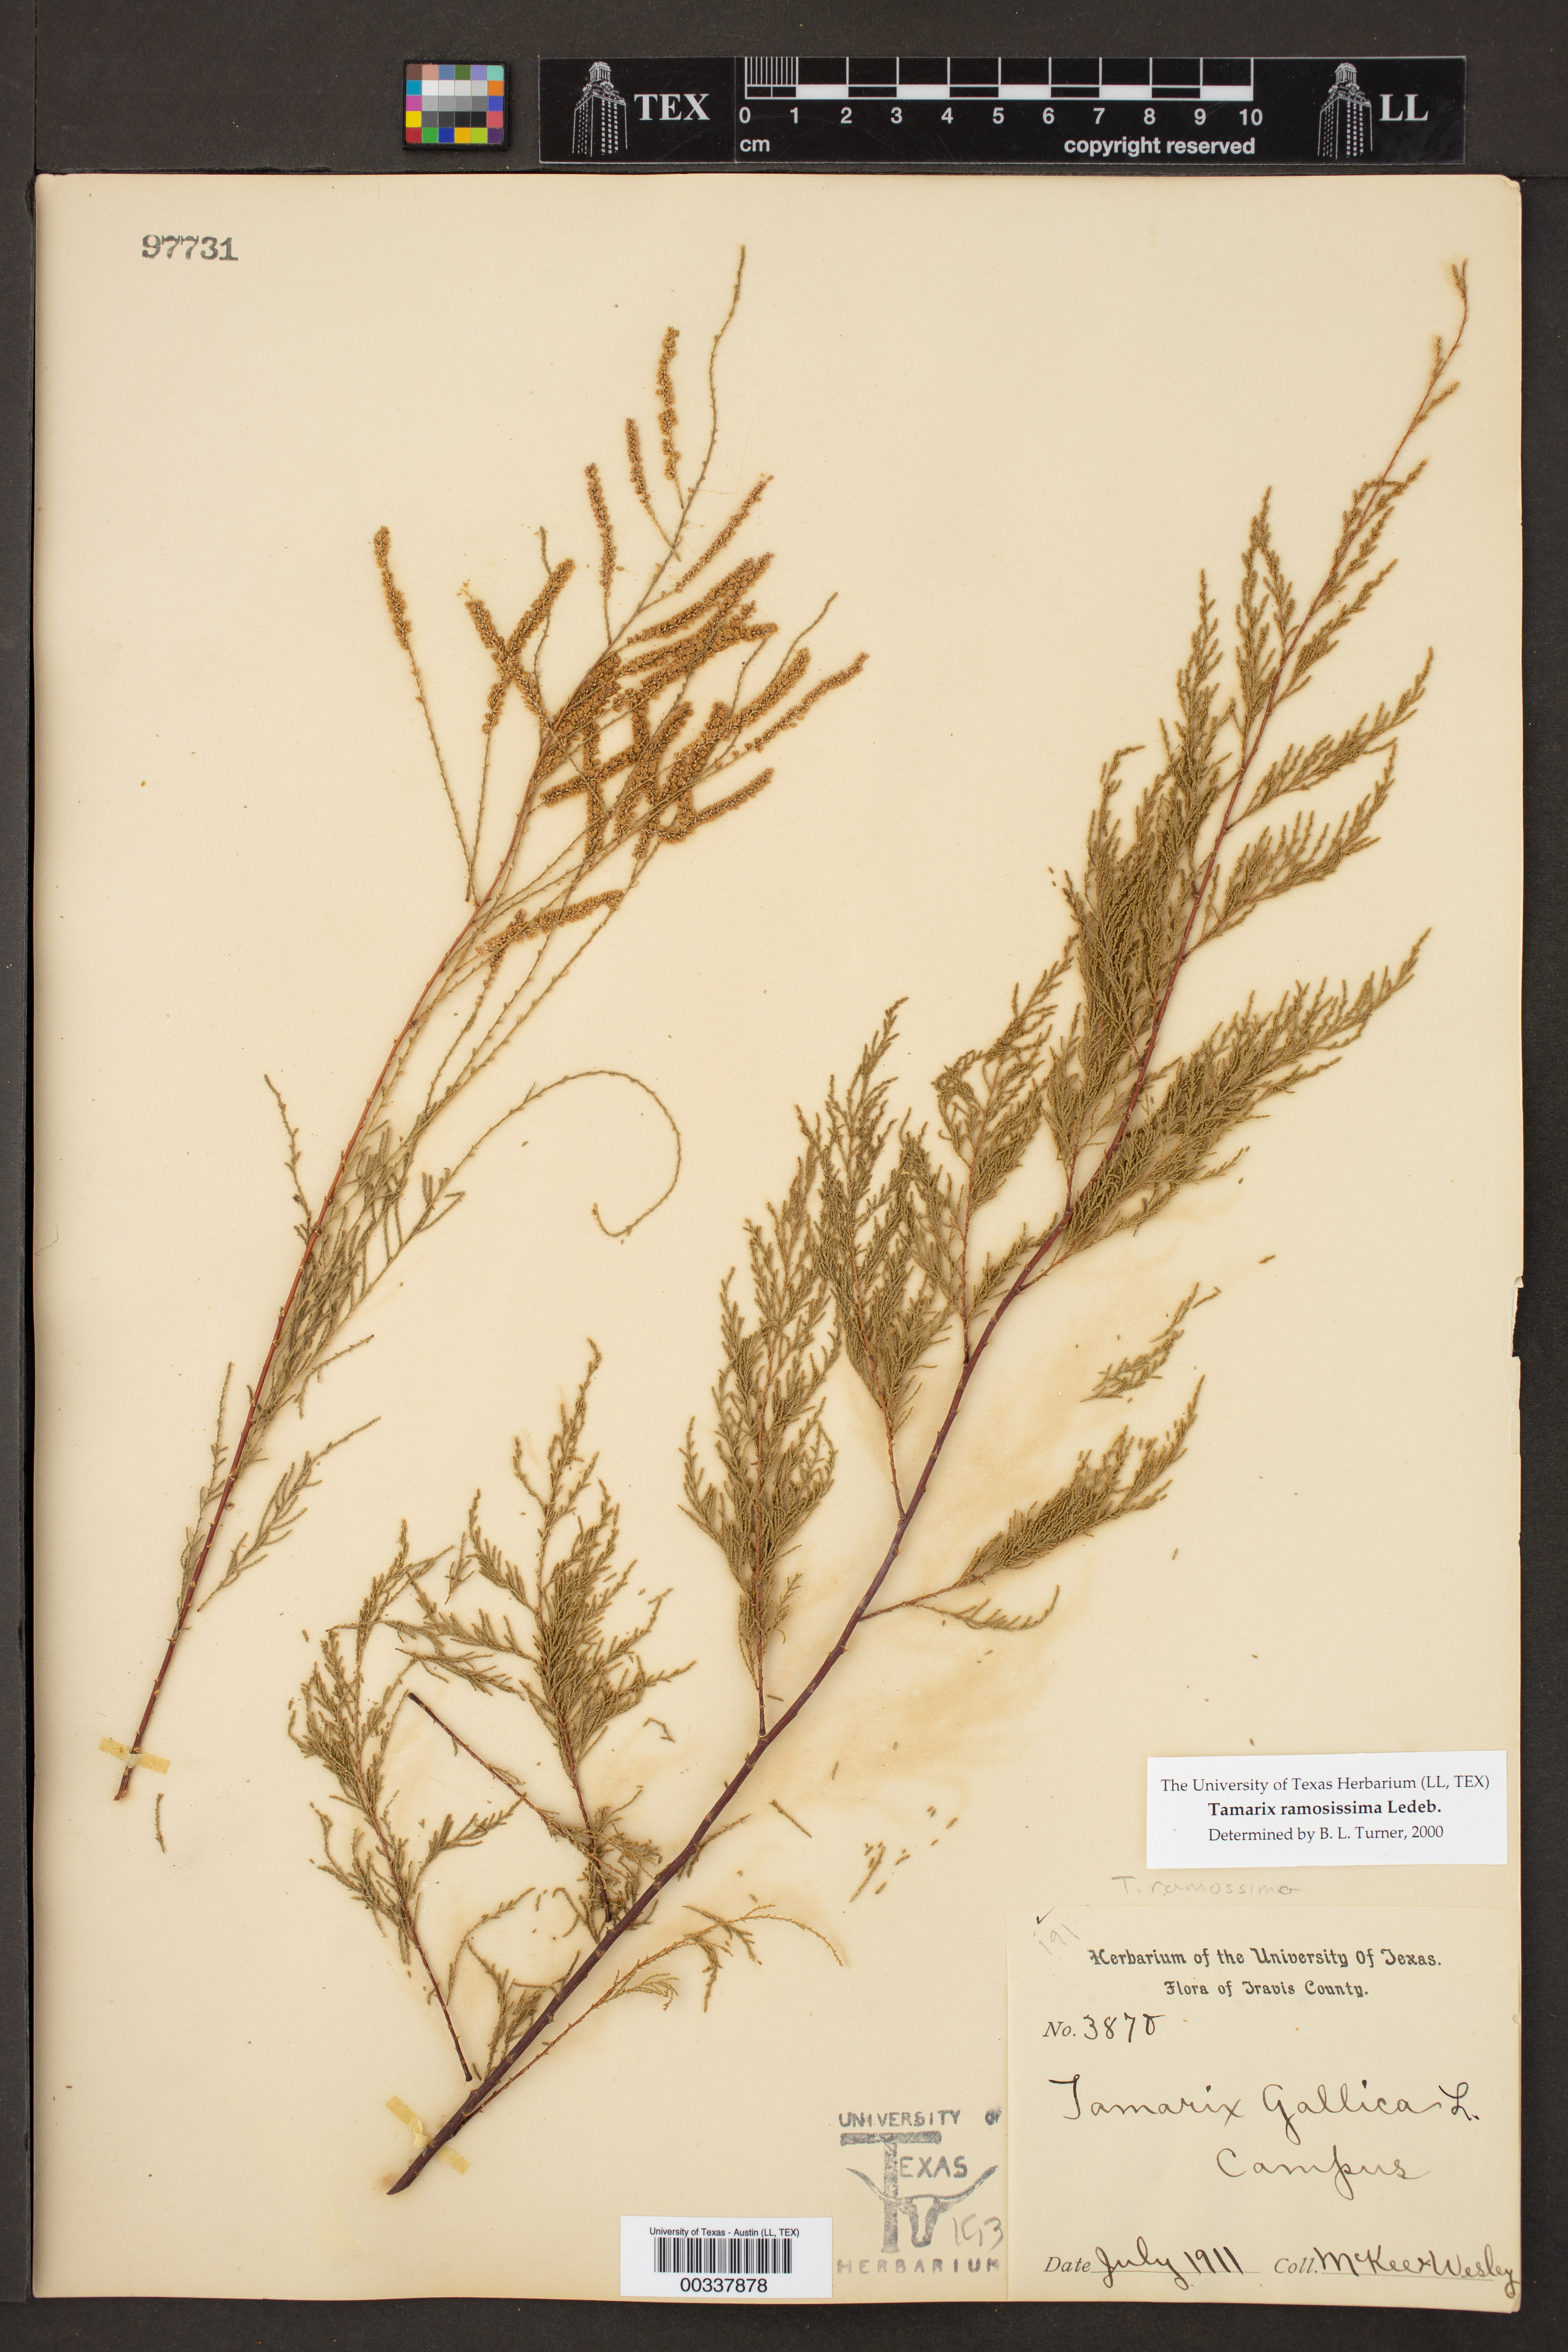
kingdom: Plantae
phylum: Tracheophyta
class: Magnoliopsida
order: Caryophyllales
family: Tamaricaceae
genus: Tamarix
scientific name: Tamarix ramosissima
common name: Pink tamarisk
